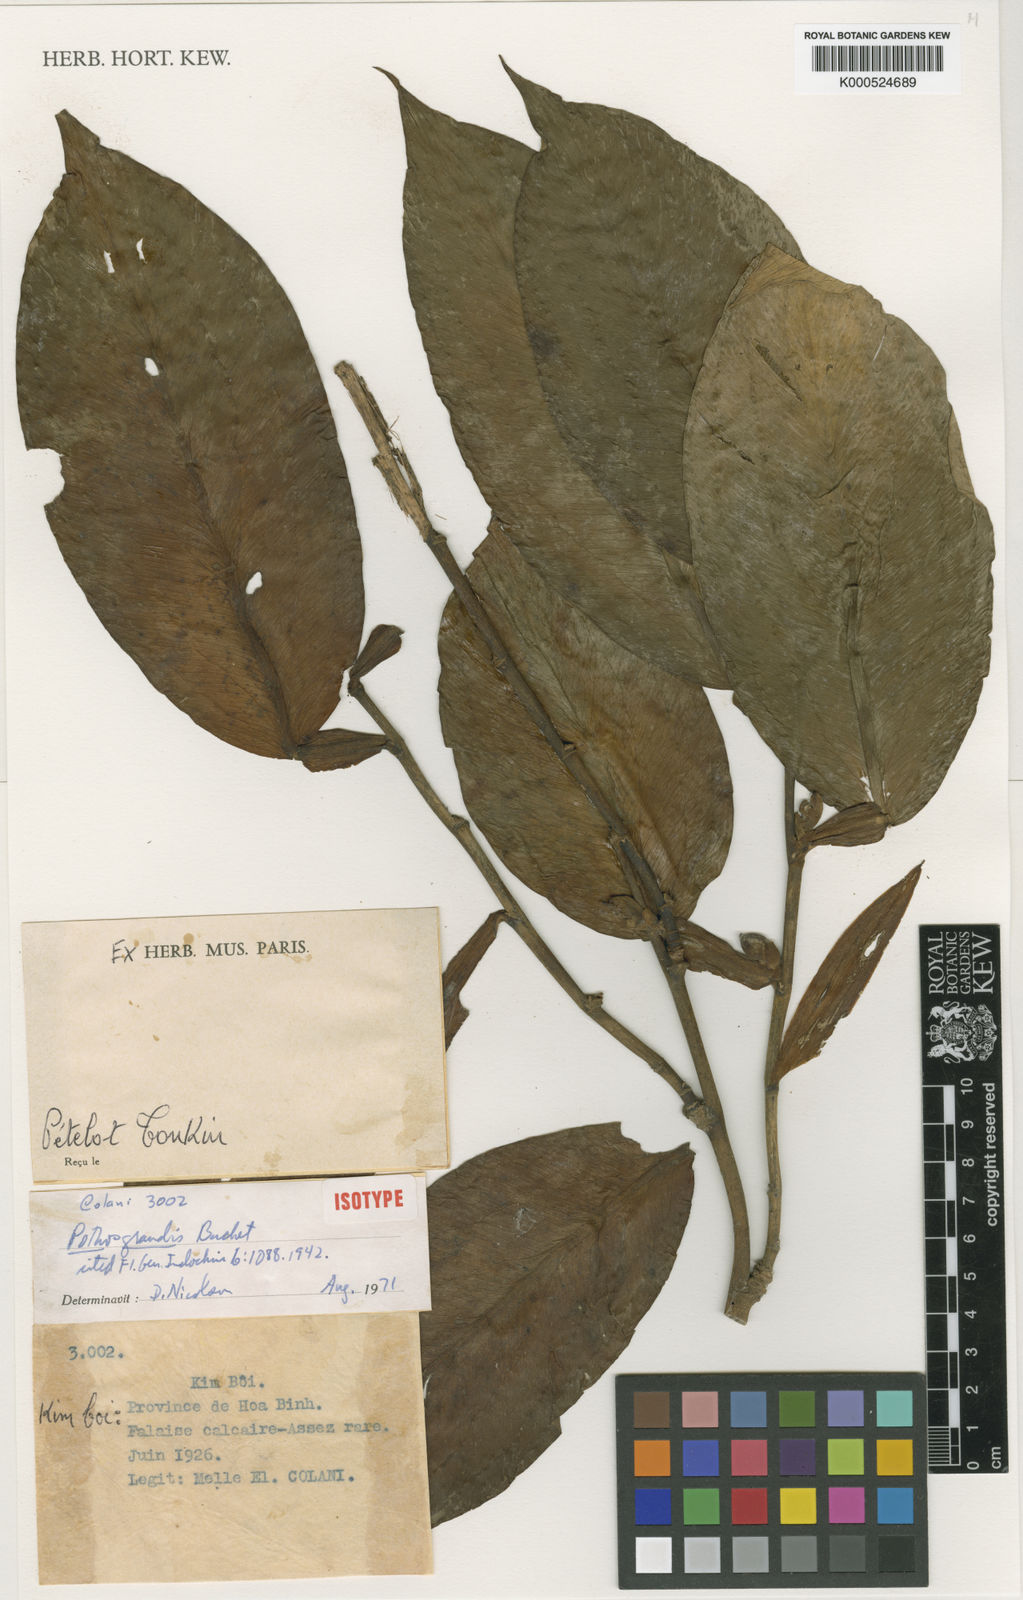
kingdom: Plantae
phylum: Tracheophyta
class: Liliopsida
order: Alismatales
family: Araceae
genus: Pothos
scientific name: Pothos grandis
